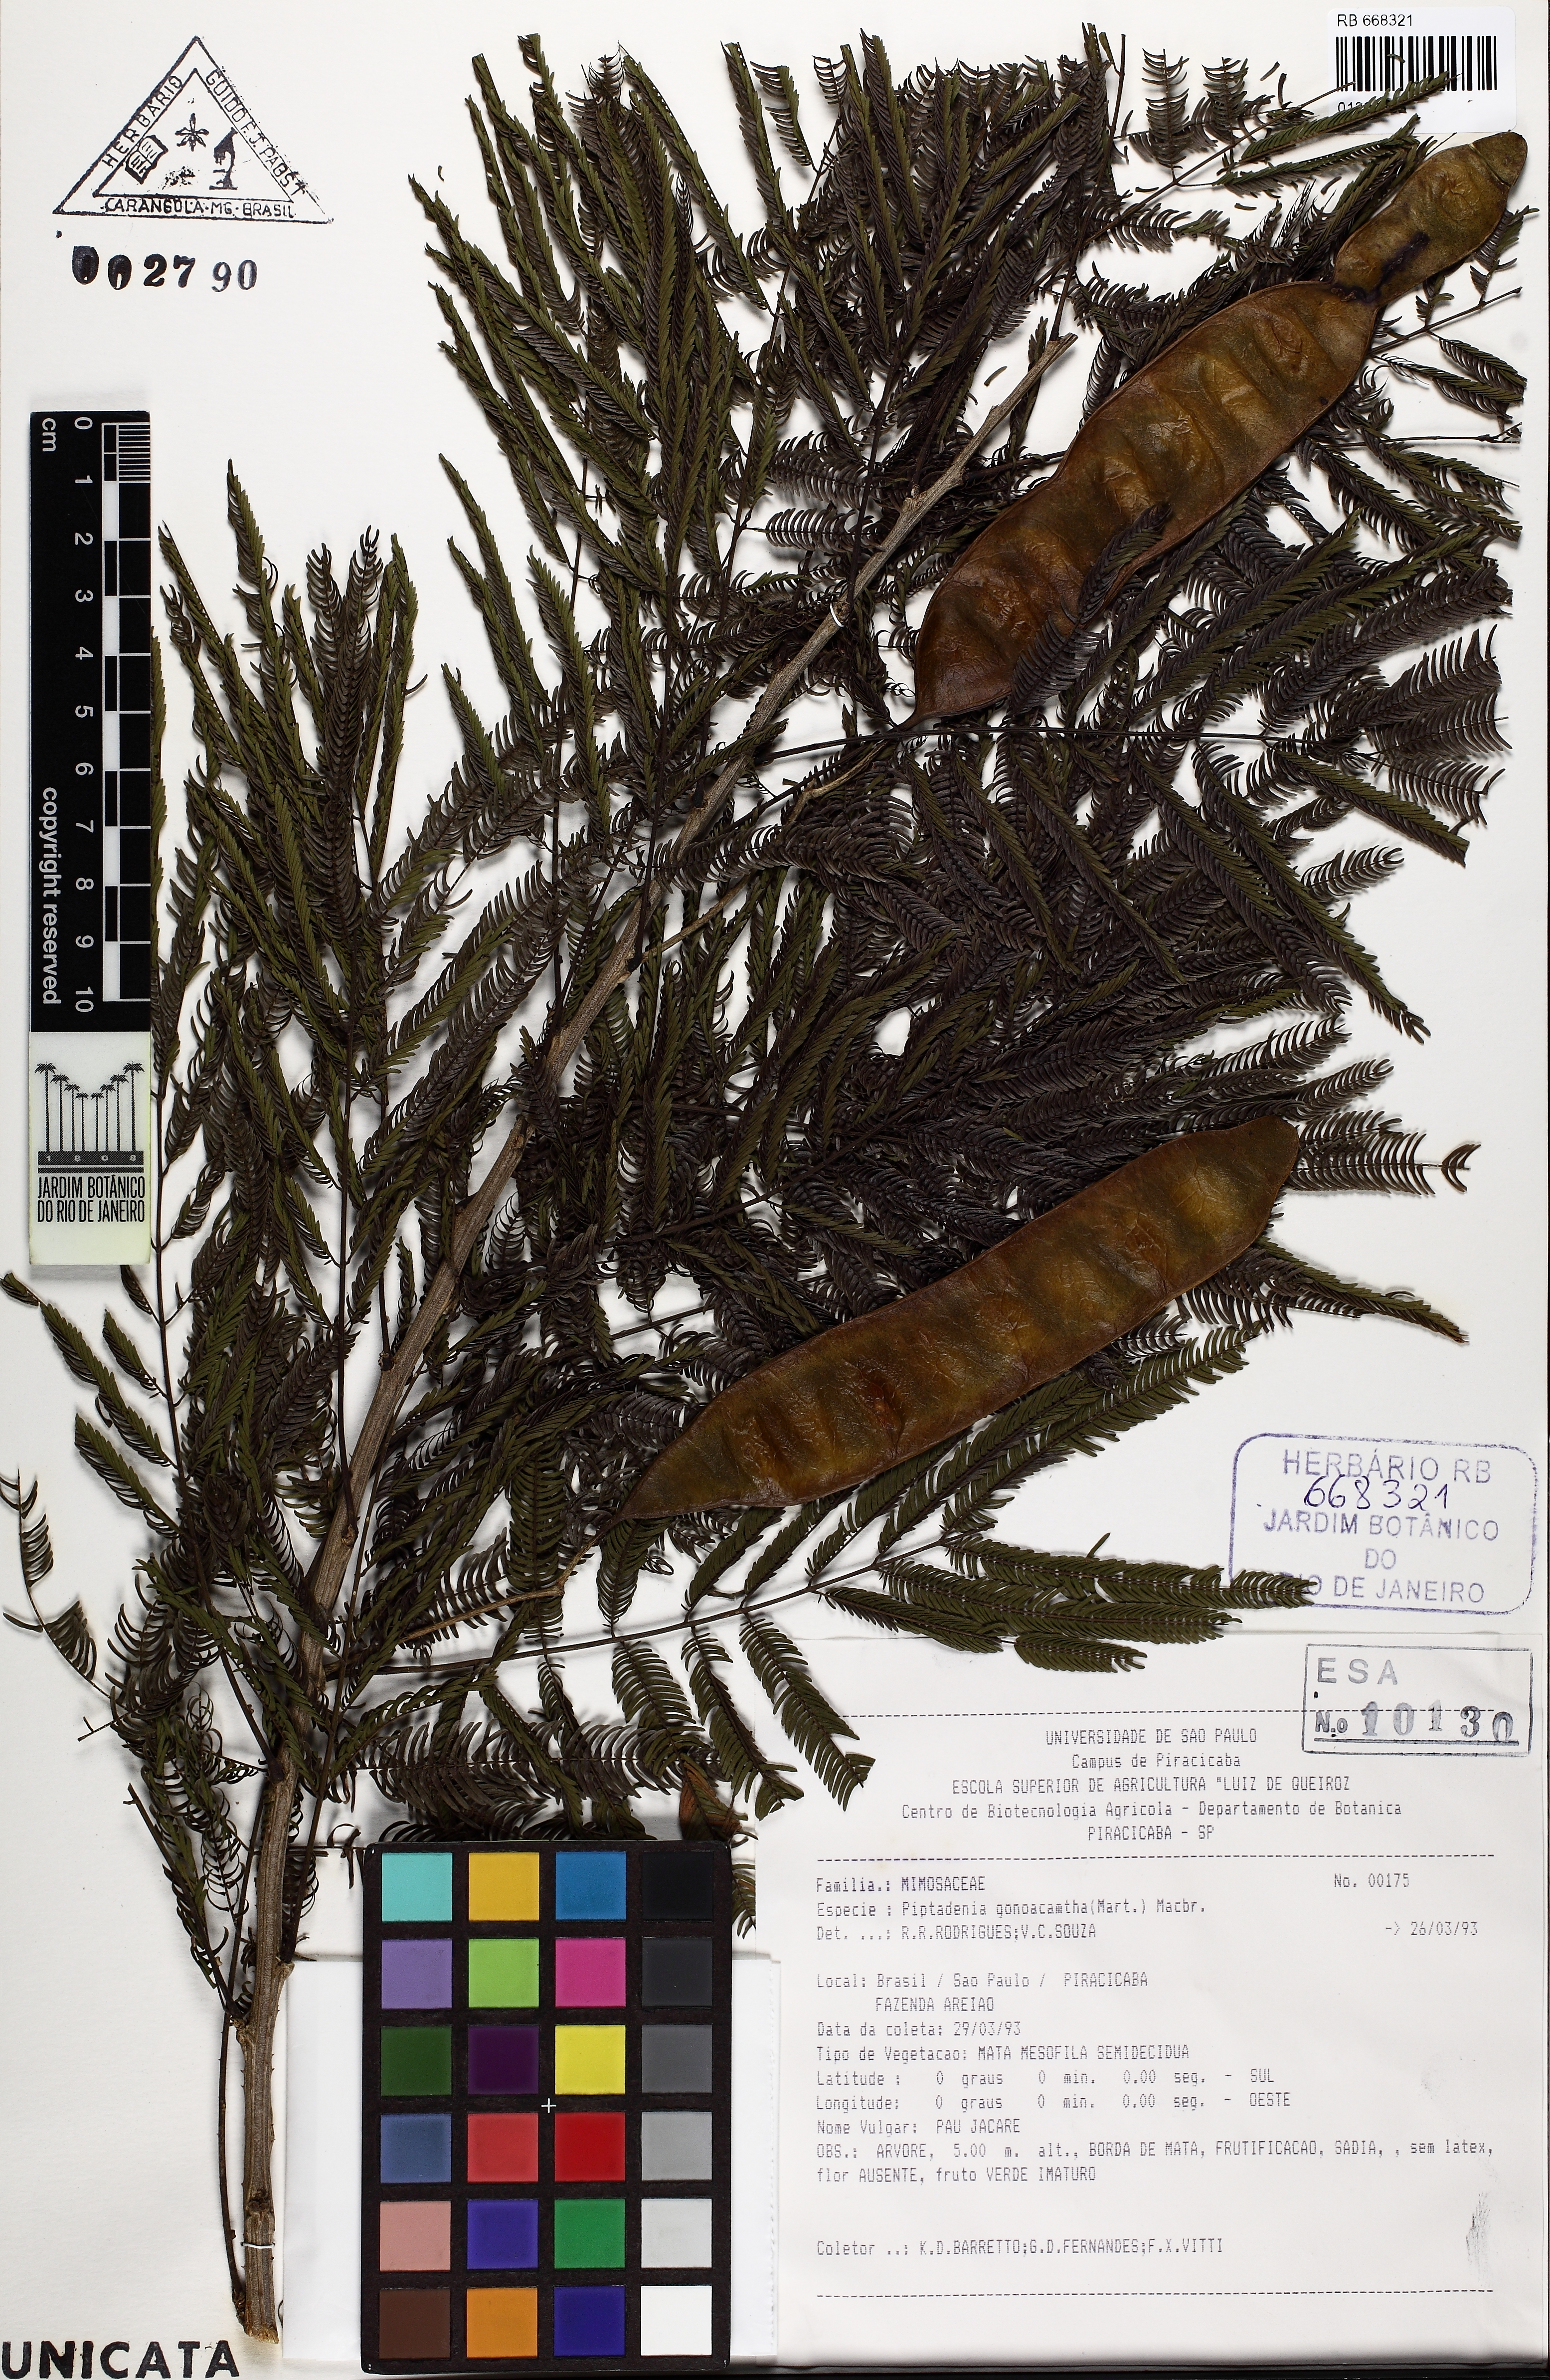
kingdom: Plantae
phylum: Tracheophyta
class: Magnoliopsida
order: Fabales
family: Fabaceae
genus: Piptadenia
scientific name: Piptadenia gonoacantha
